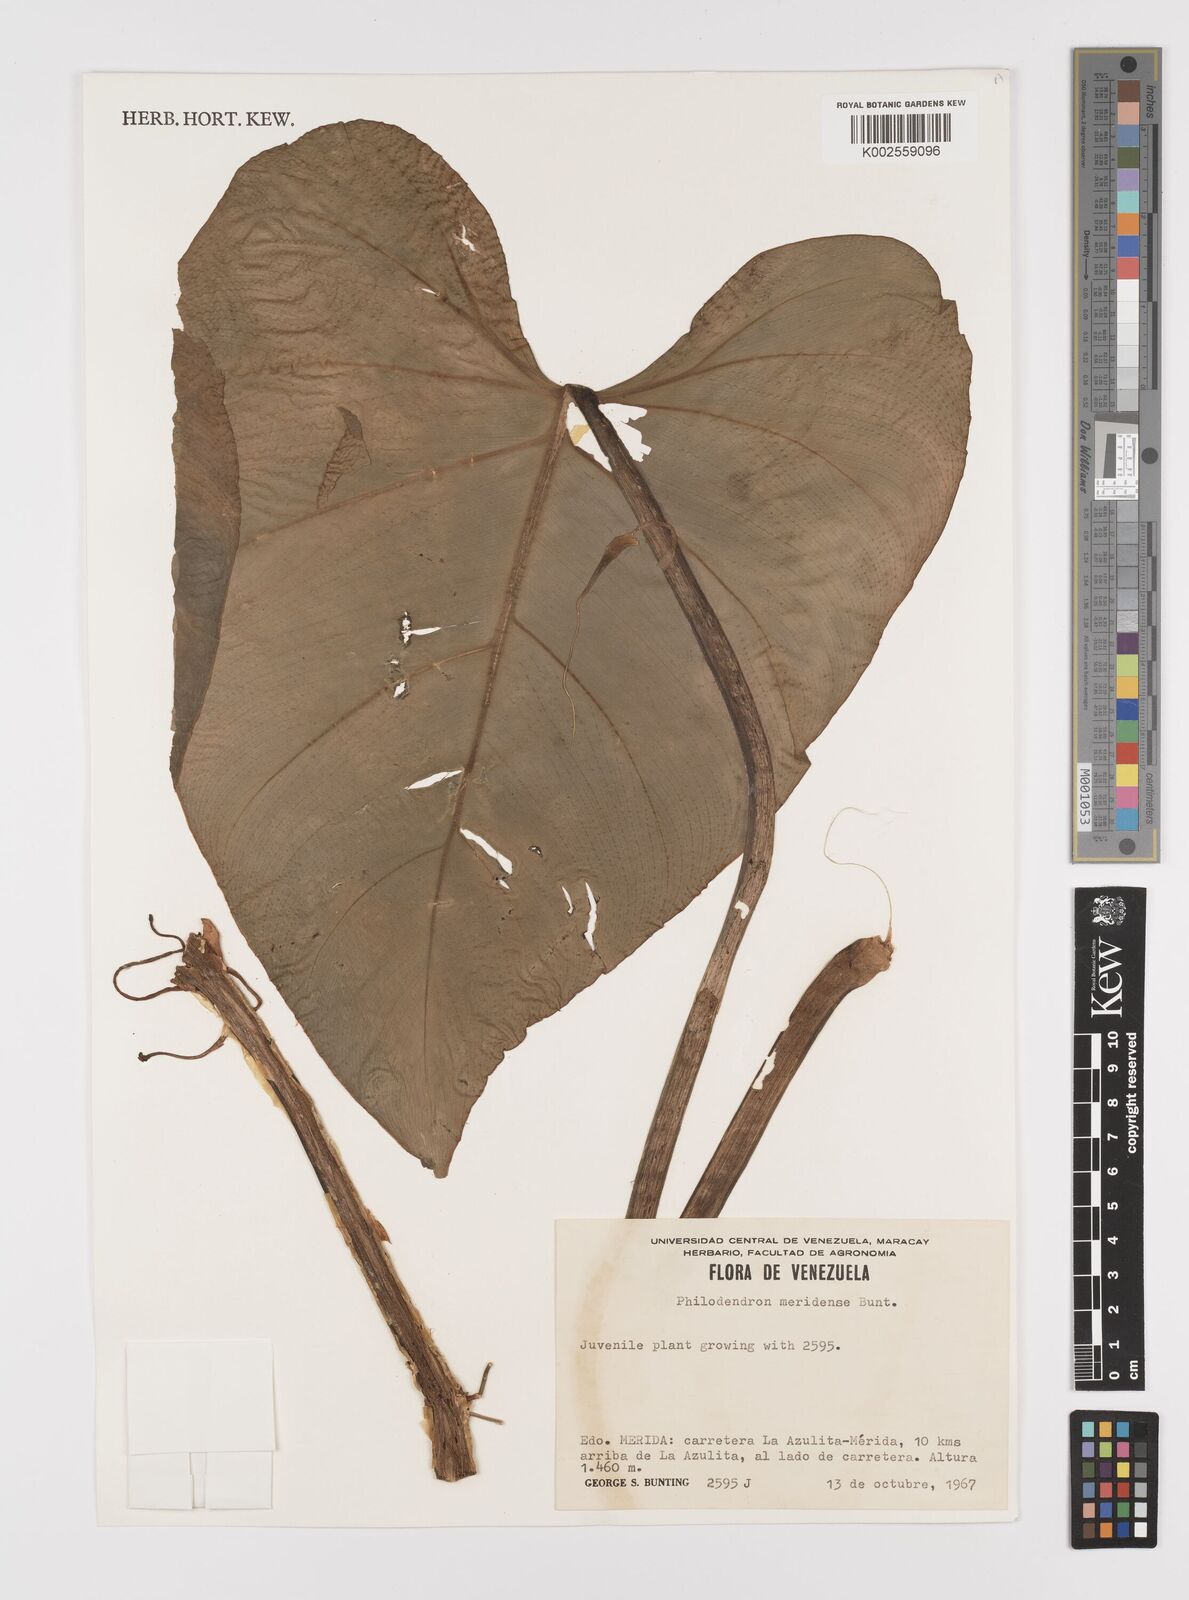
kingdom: Plantae
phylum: Tracheophyta
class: Liliopsida
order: Alismatales
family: Araceae
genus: Philodendron
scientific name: Philodendron meridense
